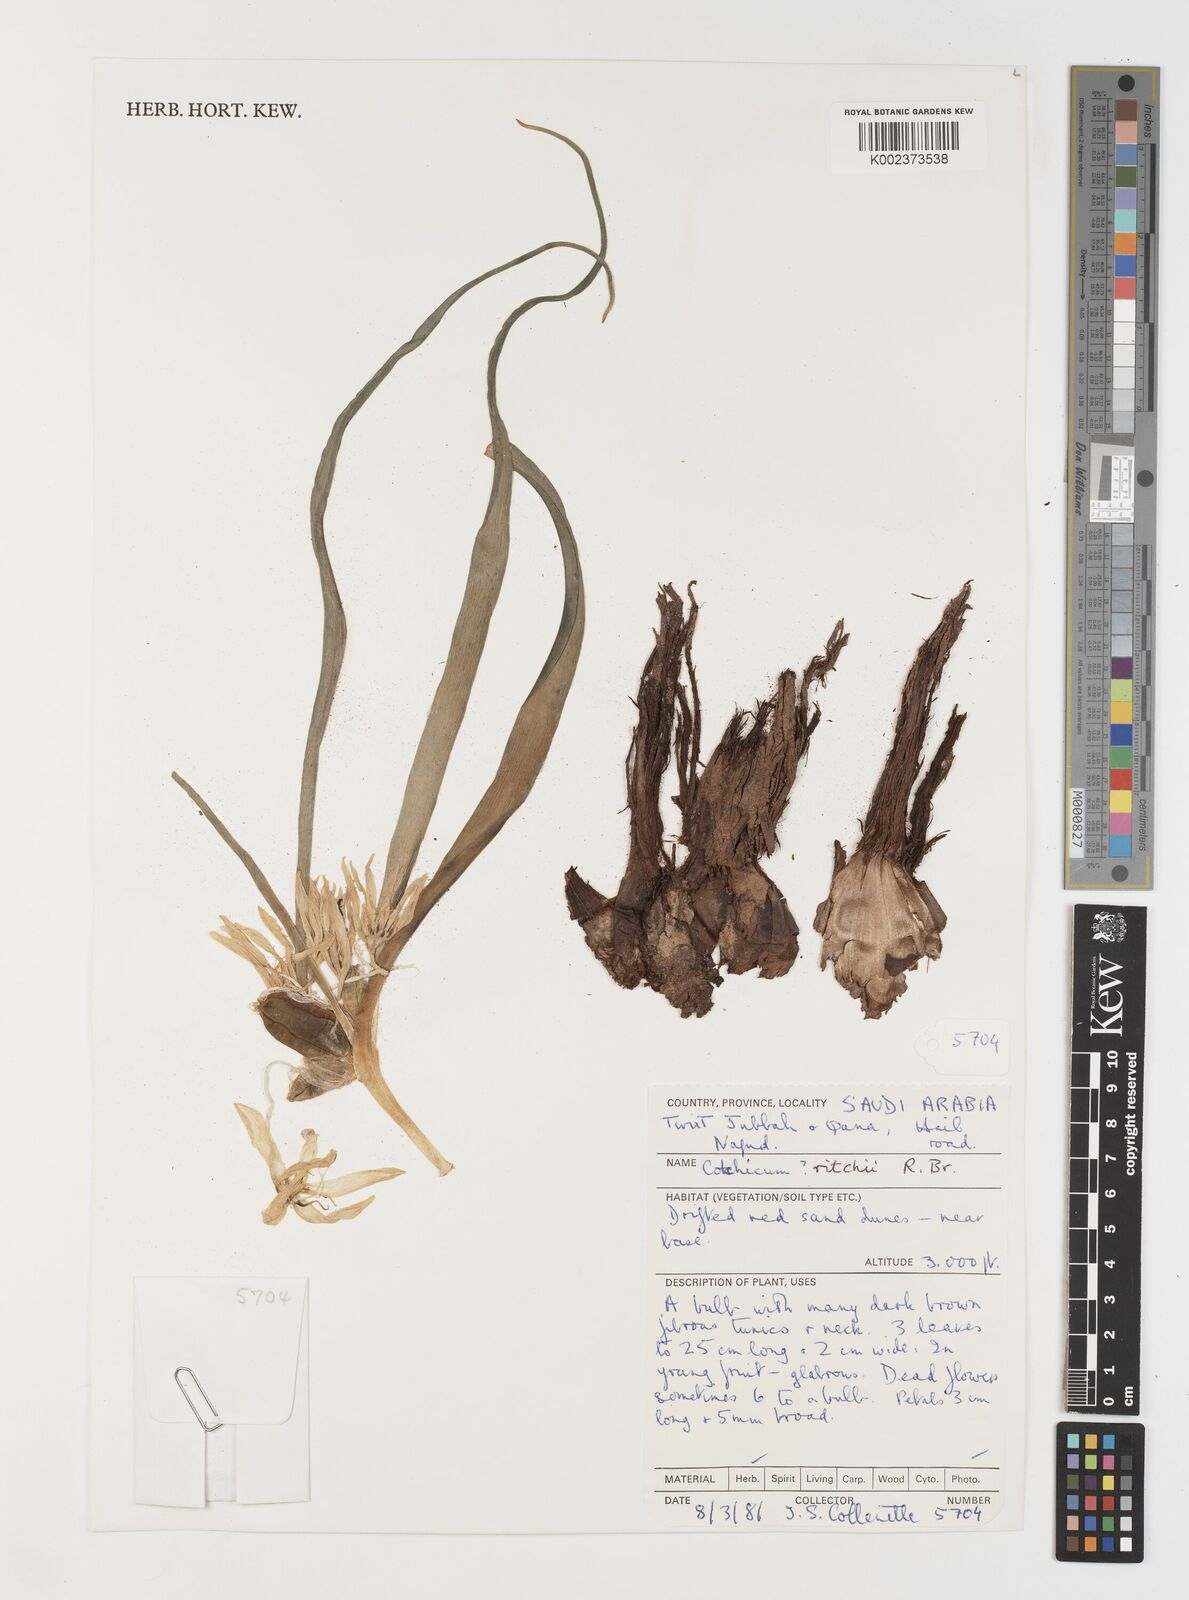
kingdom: Plantae
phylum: Tracheophyta
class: Liliopsida
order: Liliales
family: Colchicaceae
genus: Colchicum
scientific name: Colchicum ritchii
